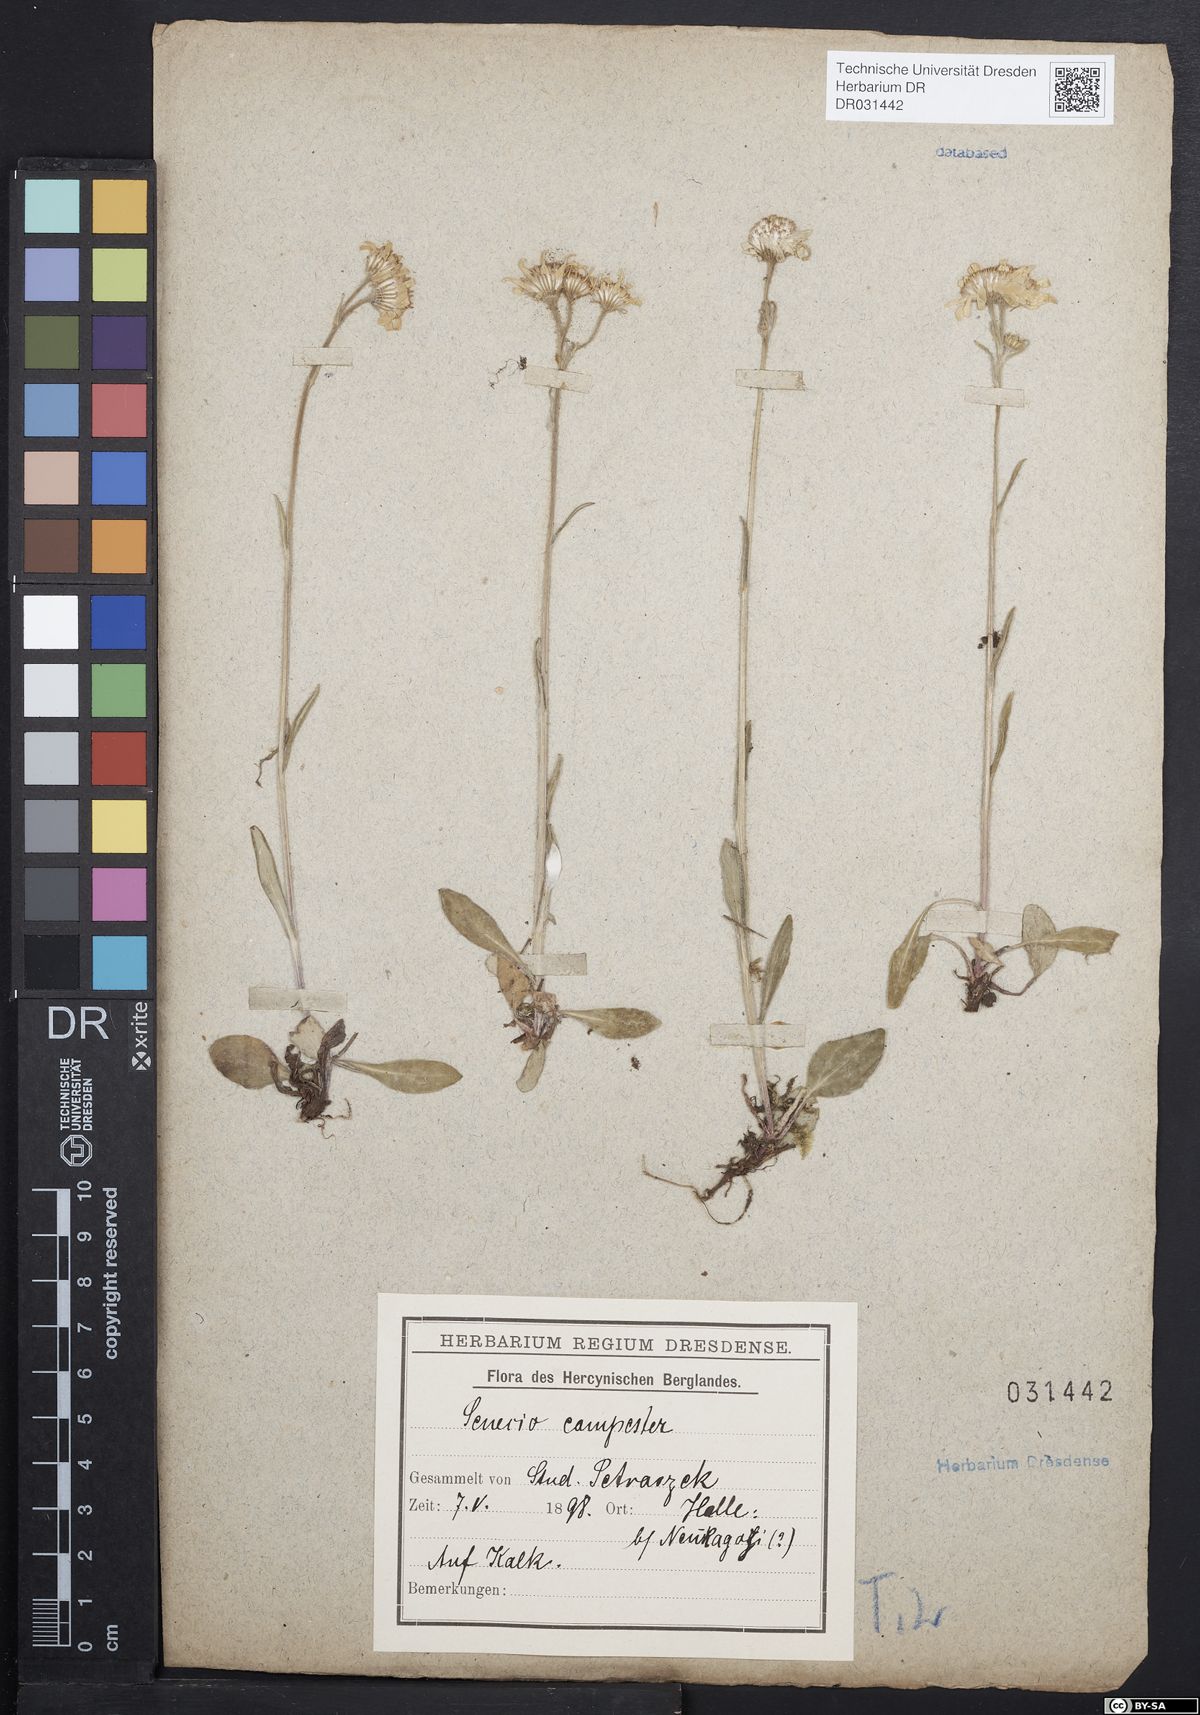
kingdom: Plantae
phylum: Tracheophyta
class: Magnoliopsida
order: Asterales
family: Asteraceae
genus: Tephroseris
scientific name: Tephroseris integrifolia
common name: Field fleawort
